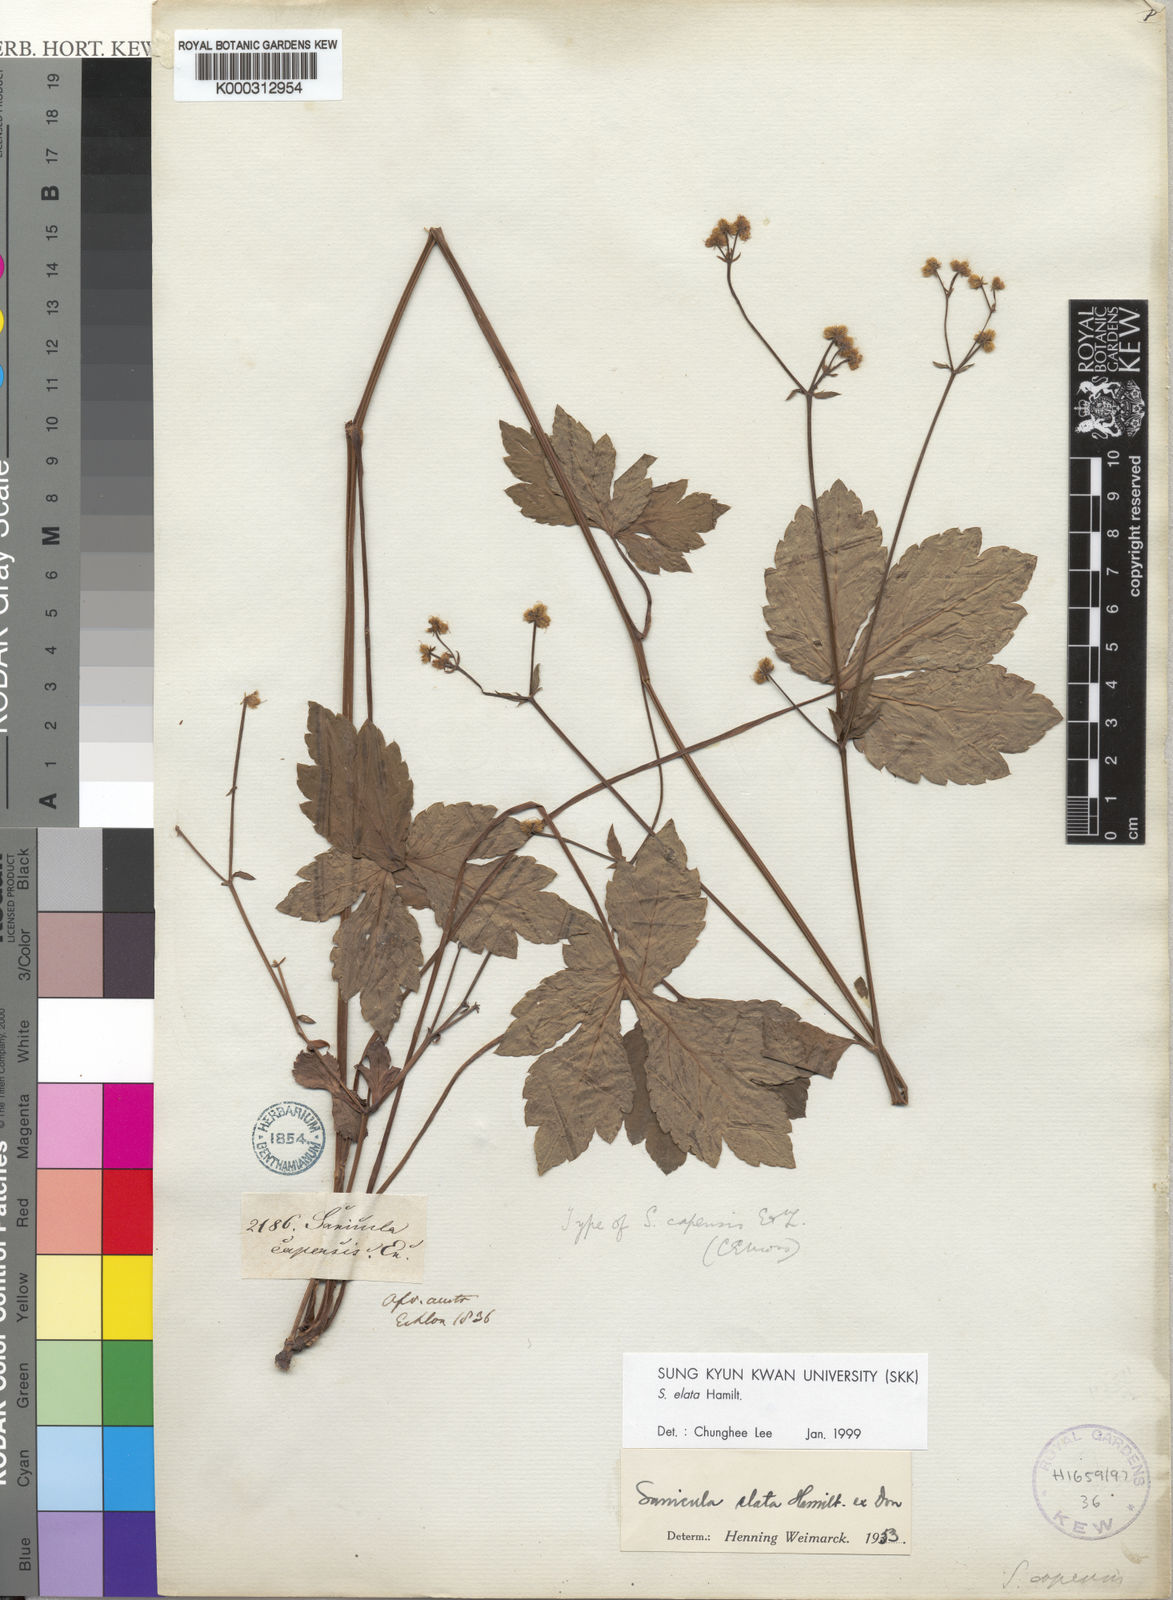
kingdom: Plantae
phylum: Tracheophyta
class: Magnoliopsida
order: Apiales
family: Apiaceae
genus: Sanicula
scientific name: Sanicula elata
